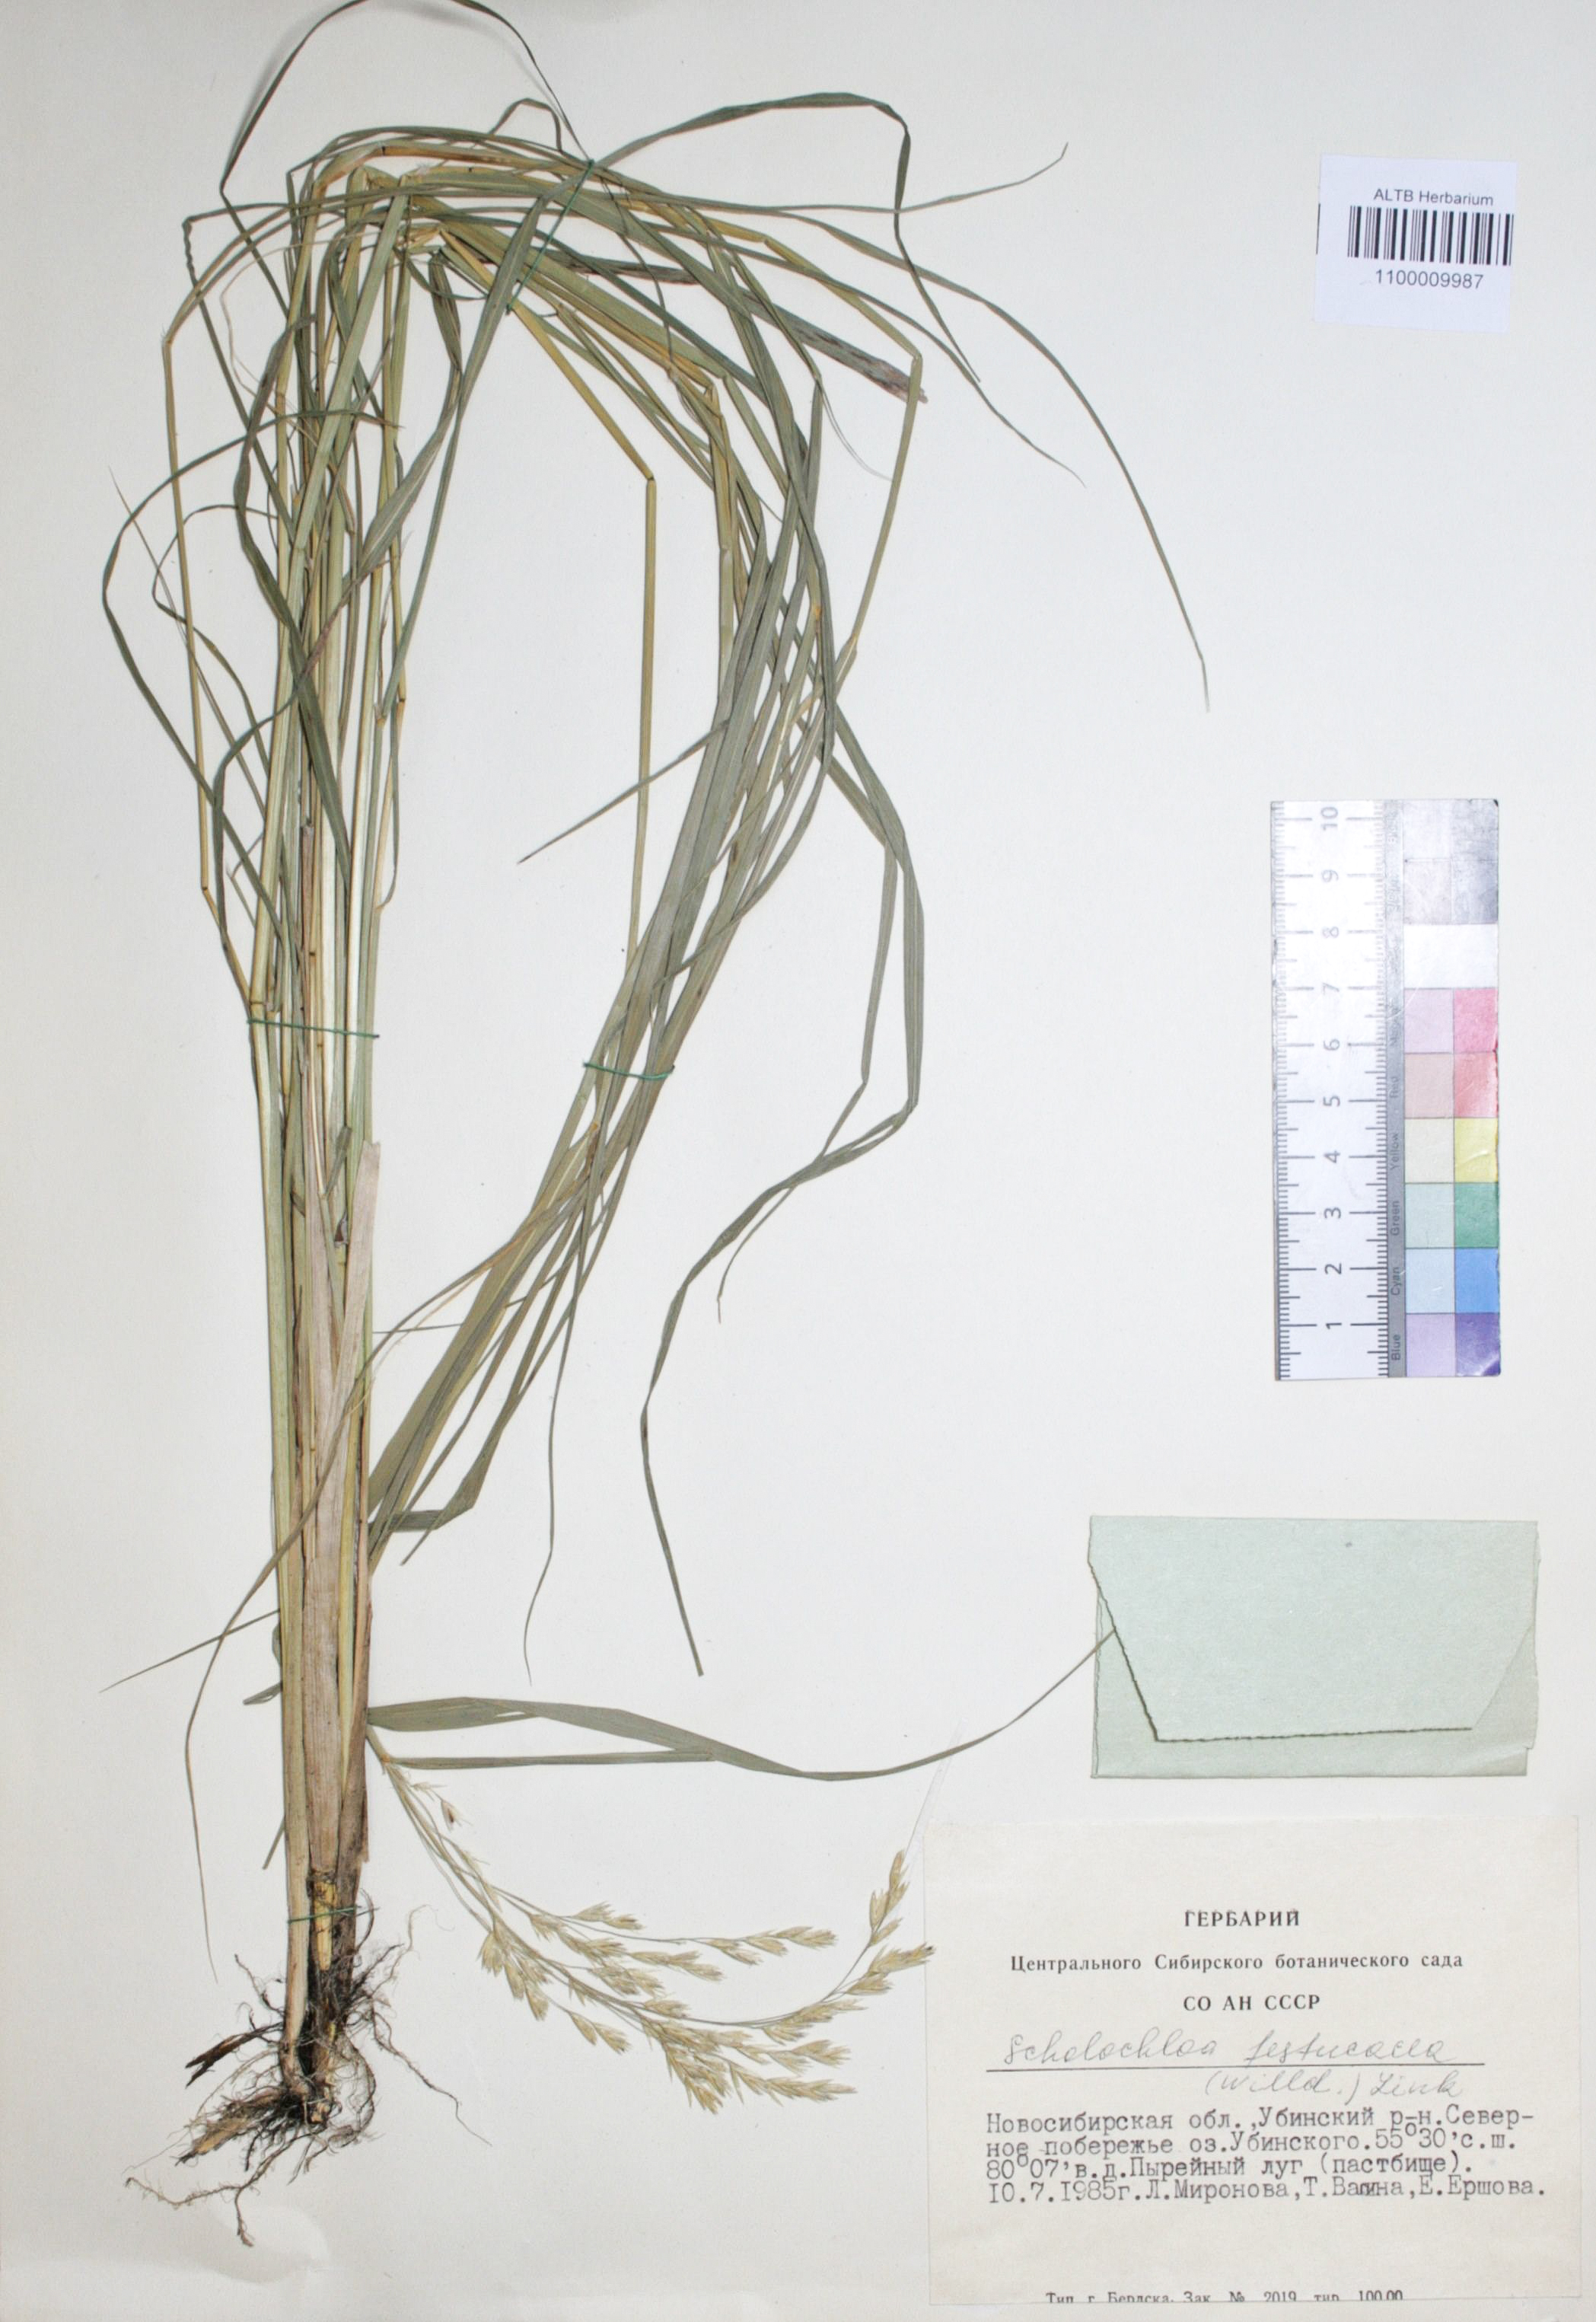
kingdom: Plantae
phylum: Tracheophyta
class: Liliopsida
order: Poales
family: Poaceae
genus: Scolochloa
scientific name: Scolochloa festucacea
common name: Common rivergrass
